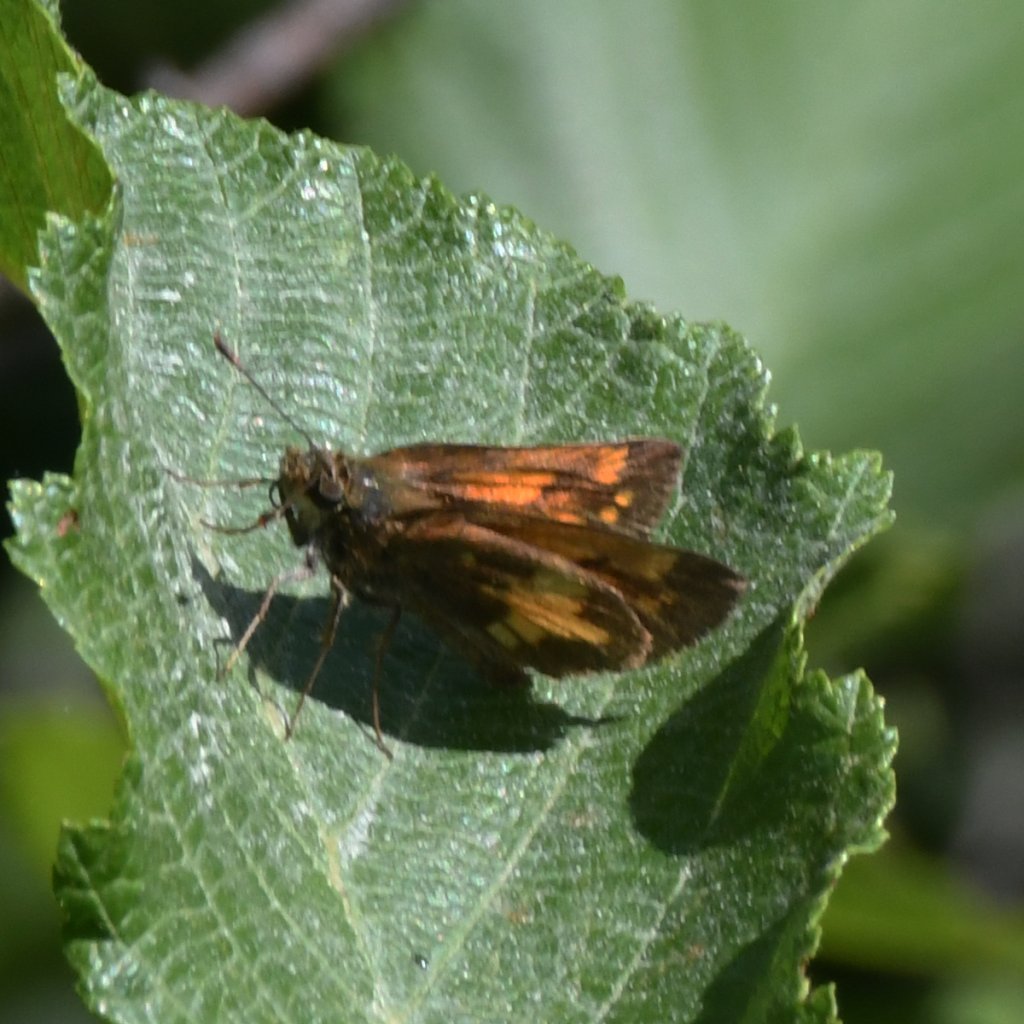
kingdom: Animalia
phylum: Arthropoda
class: Insecta
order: Lepidoptera
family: Hesperiidae
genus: Lon
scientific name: Lon hobomok
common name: Hobomok Skipper
